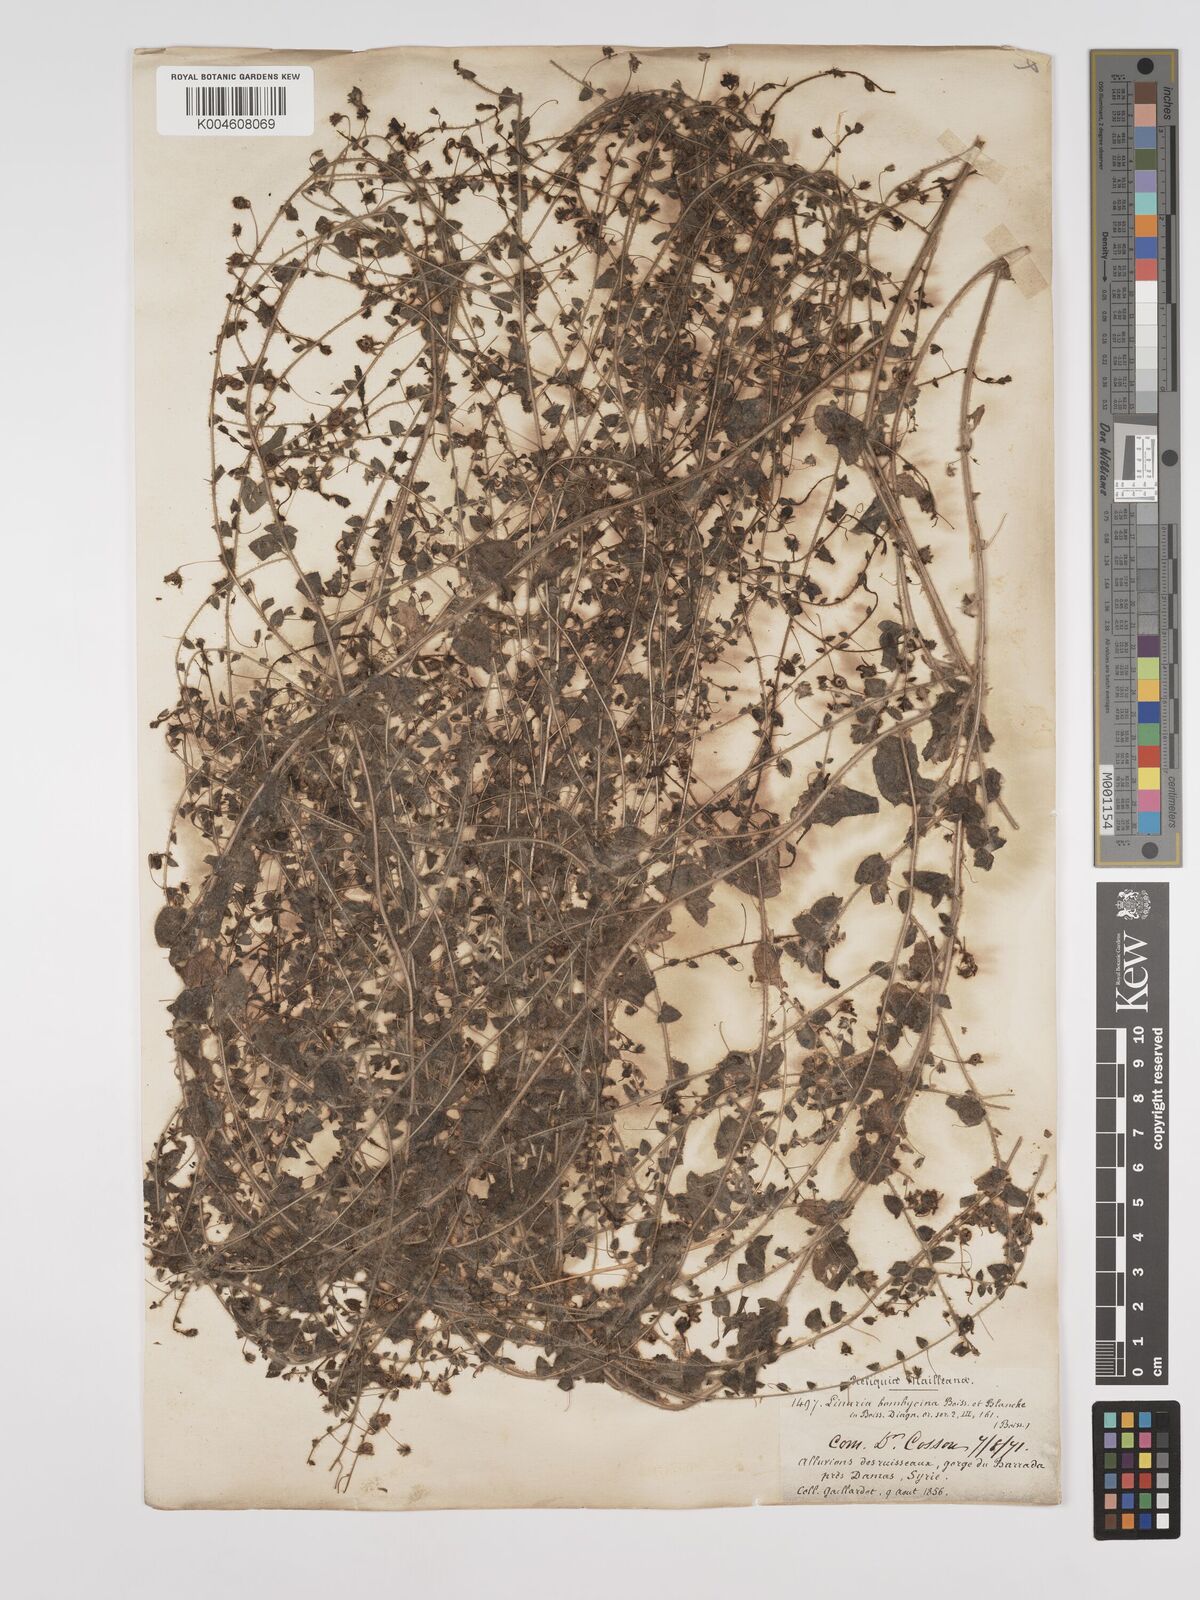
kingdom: Plantae
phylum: Tracheophyta
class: Magnoliopsida
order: Lamiales
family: Plantaginaceae
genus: Kickxia
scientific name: Kickxia elatine
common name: Sharp-leaved fluellen
